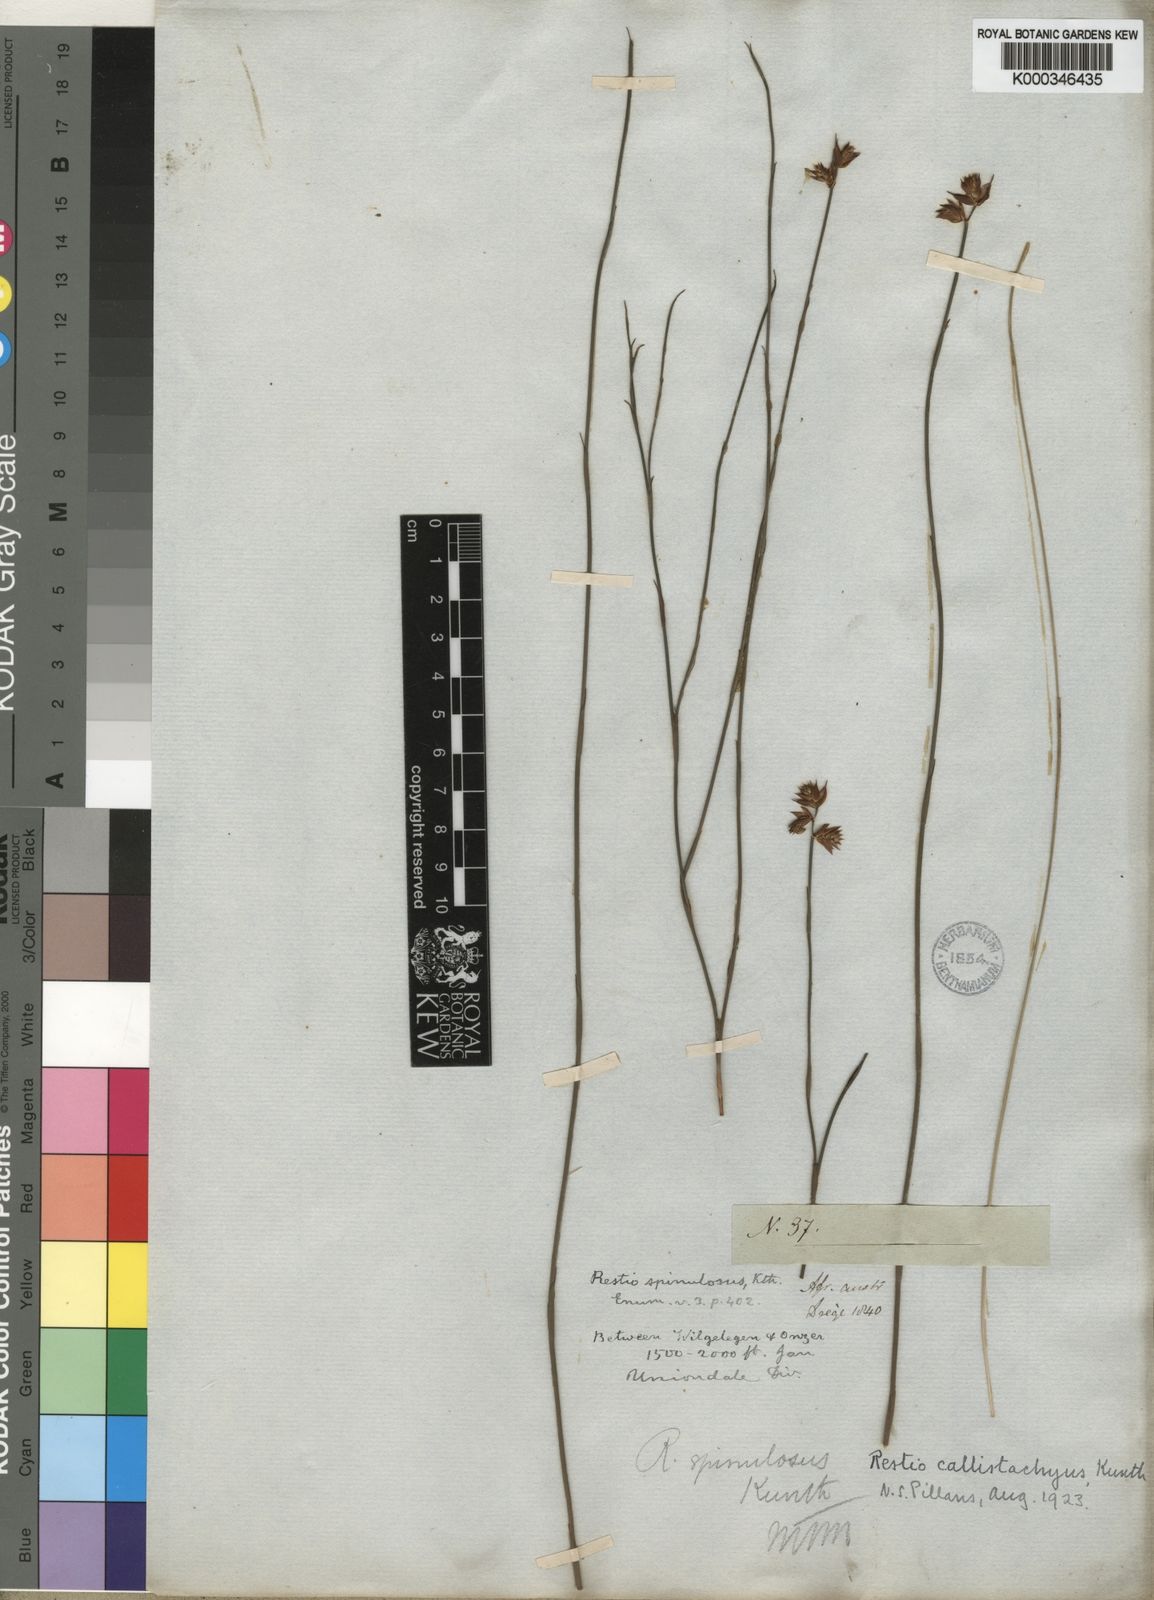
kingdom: Plantae
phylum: Tracheophyta
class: Liliopsida
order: Poales
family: Restionaceae
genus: Platycaulos
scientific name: Platycaulos callistachyus
